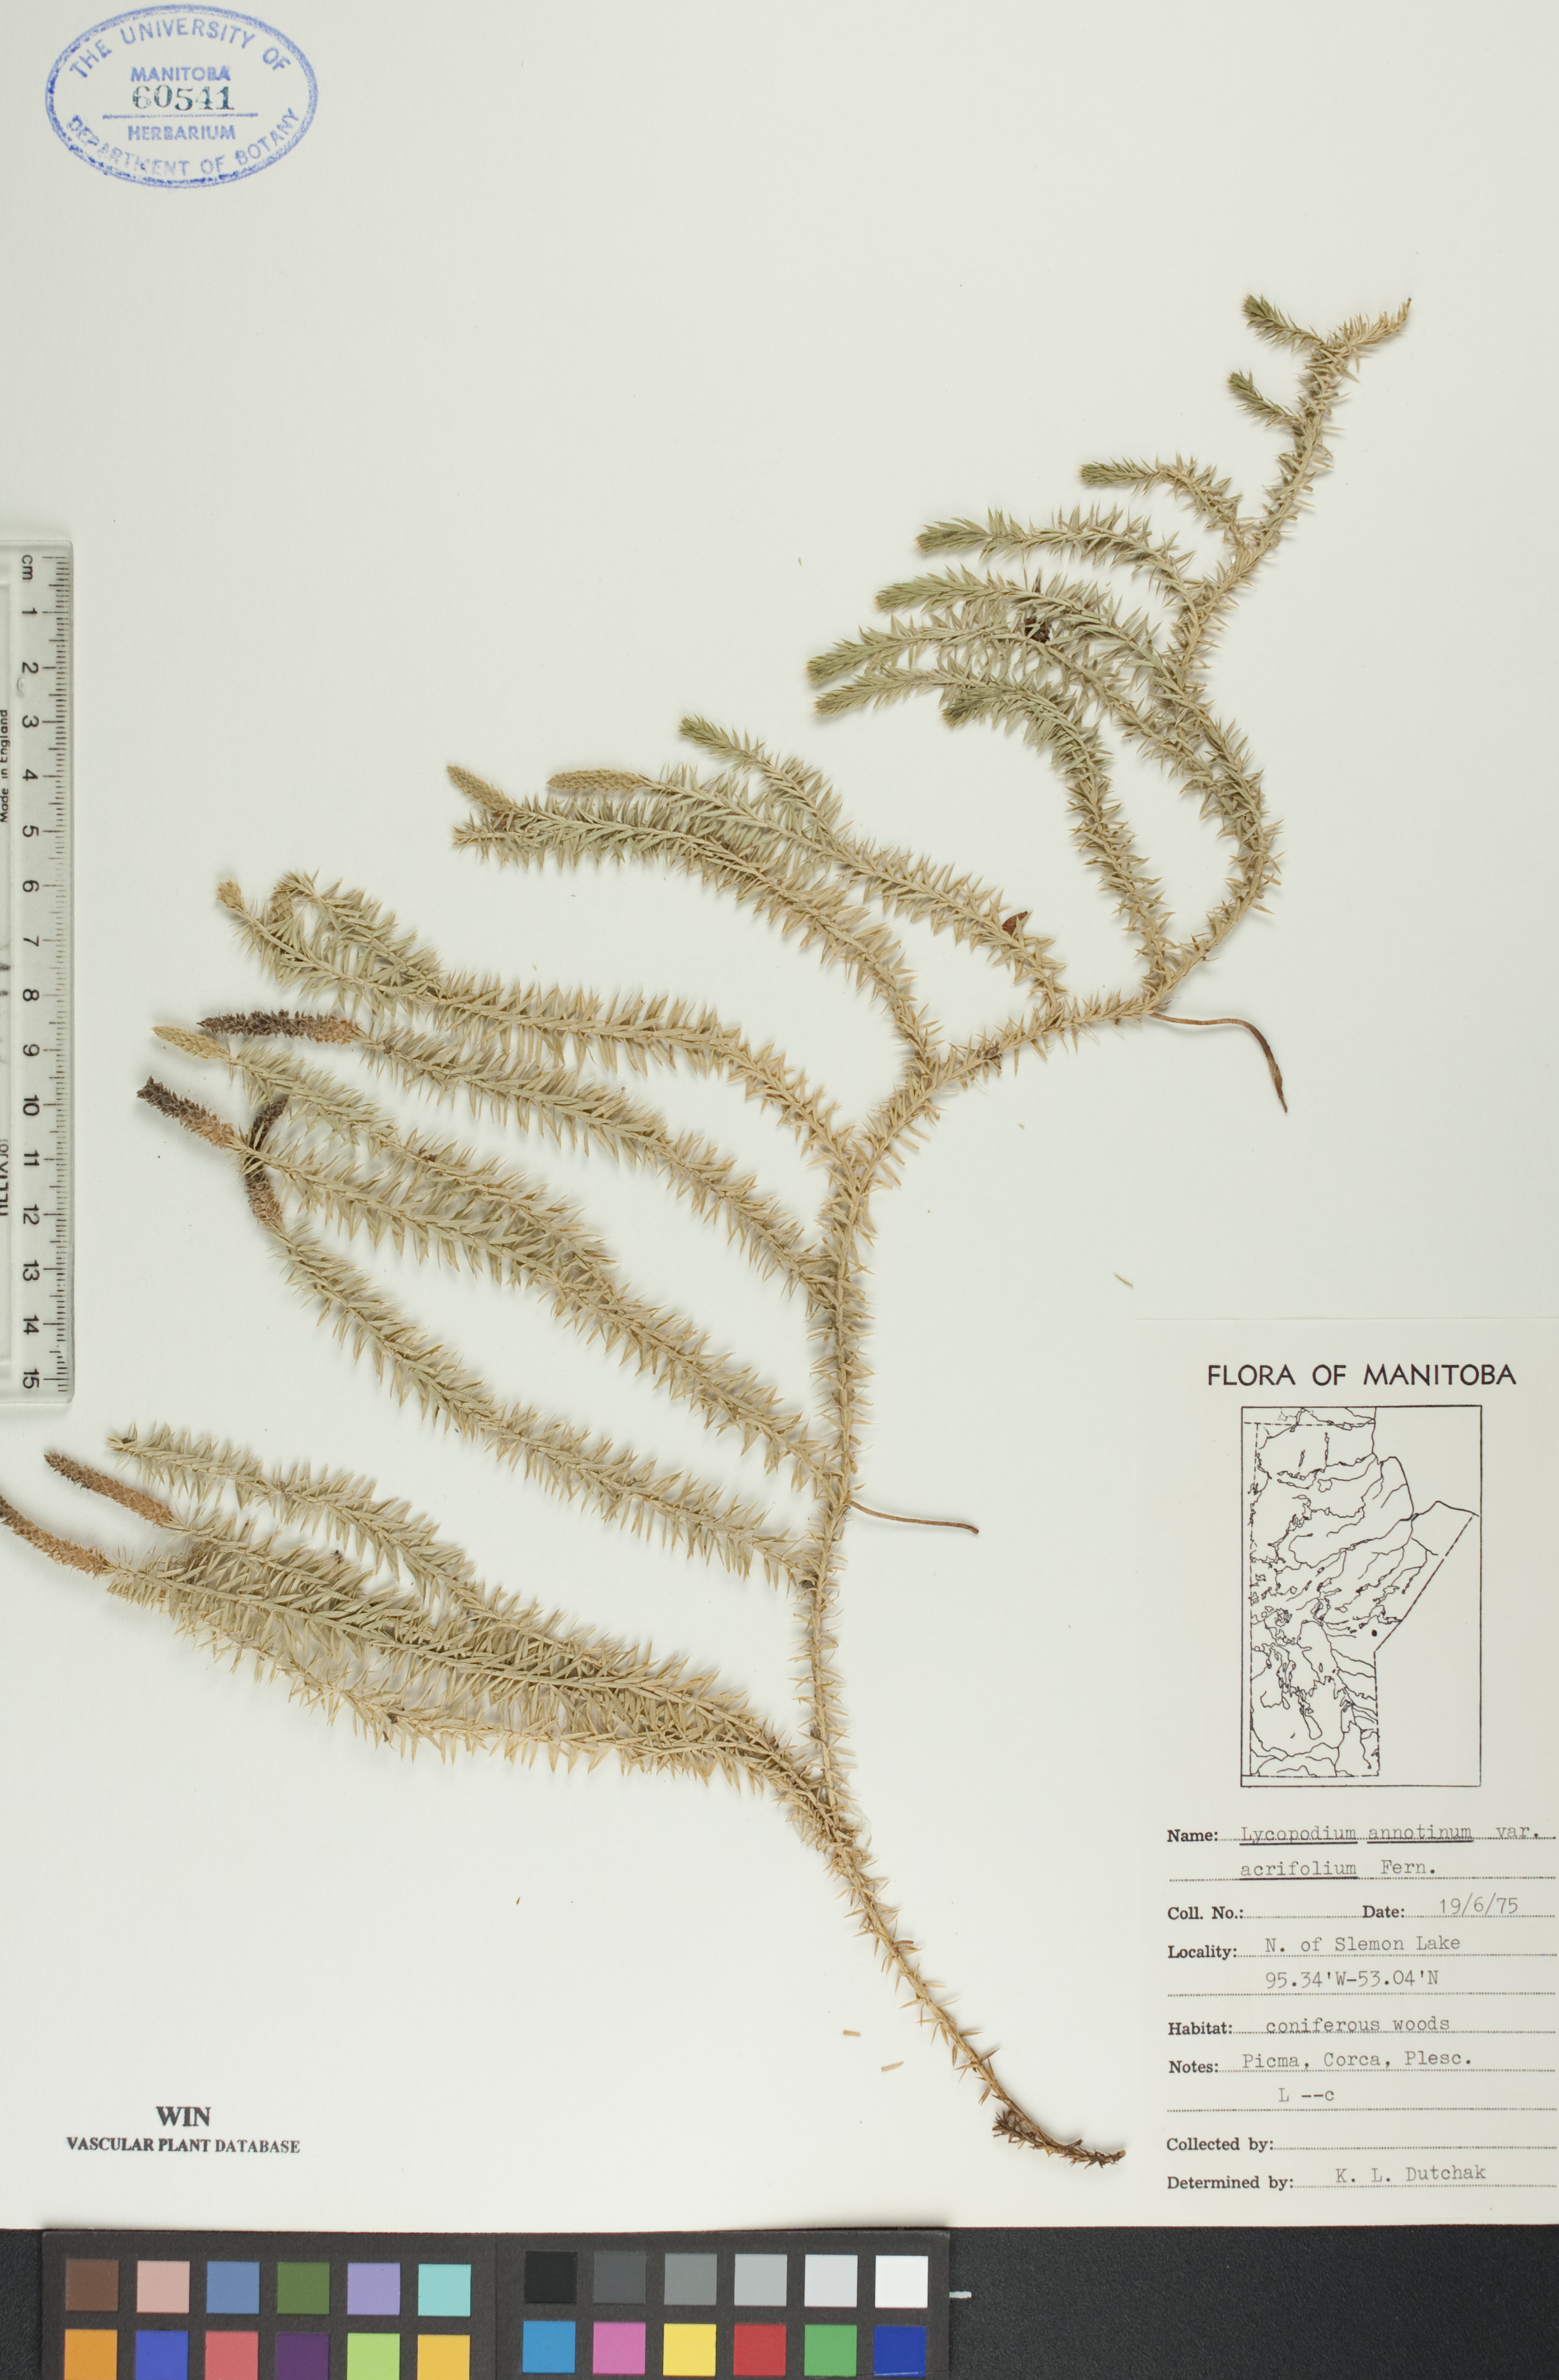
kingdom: Plantae
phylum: Tracheophyta
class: Lycopodiopsida
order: Lycopodiales
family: Lycopodiaceae
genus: Spinulum
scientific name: Spinulum annotinum
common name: Interrupted club-moss
